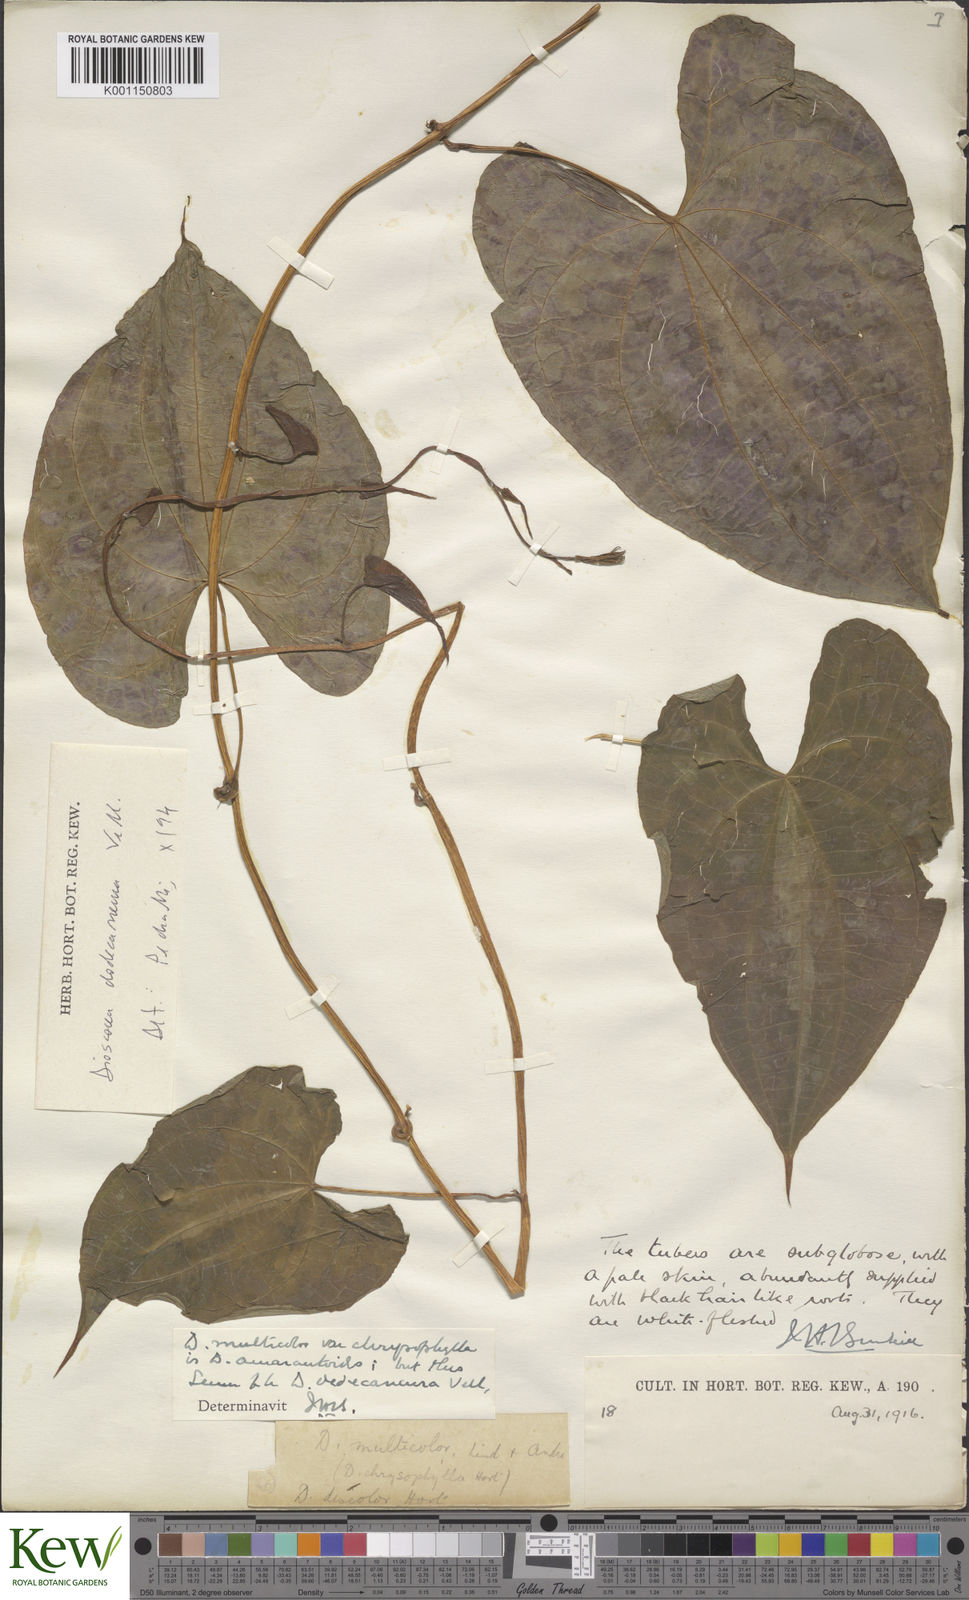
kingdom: Plantae
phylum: Tracheophyta
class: Liliopsida
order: Dioscoreales
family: Dioscoreaceae
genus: Dioscorea
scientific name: Dioscorea dodecaneura
